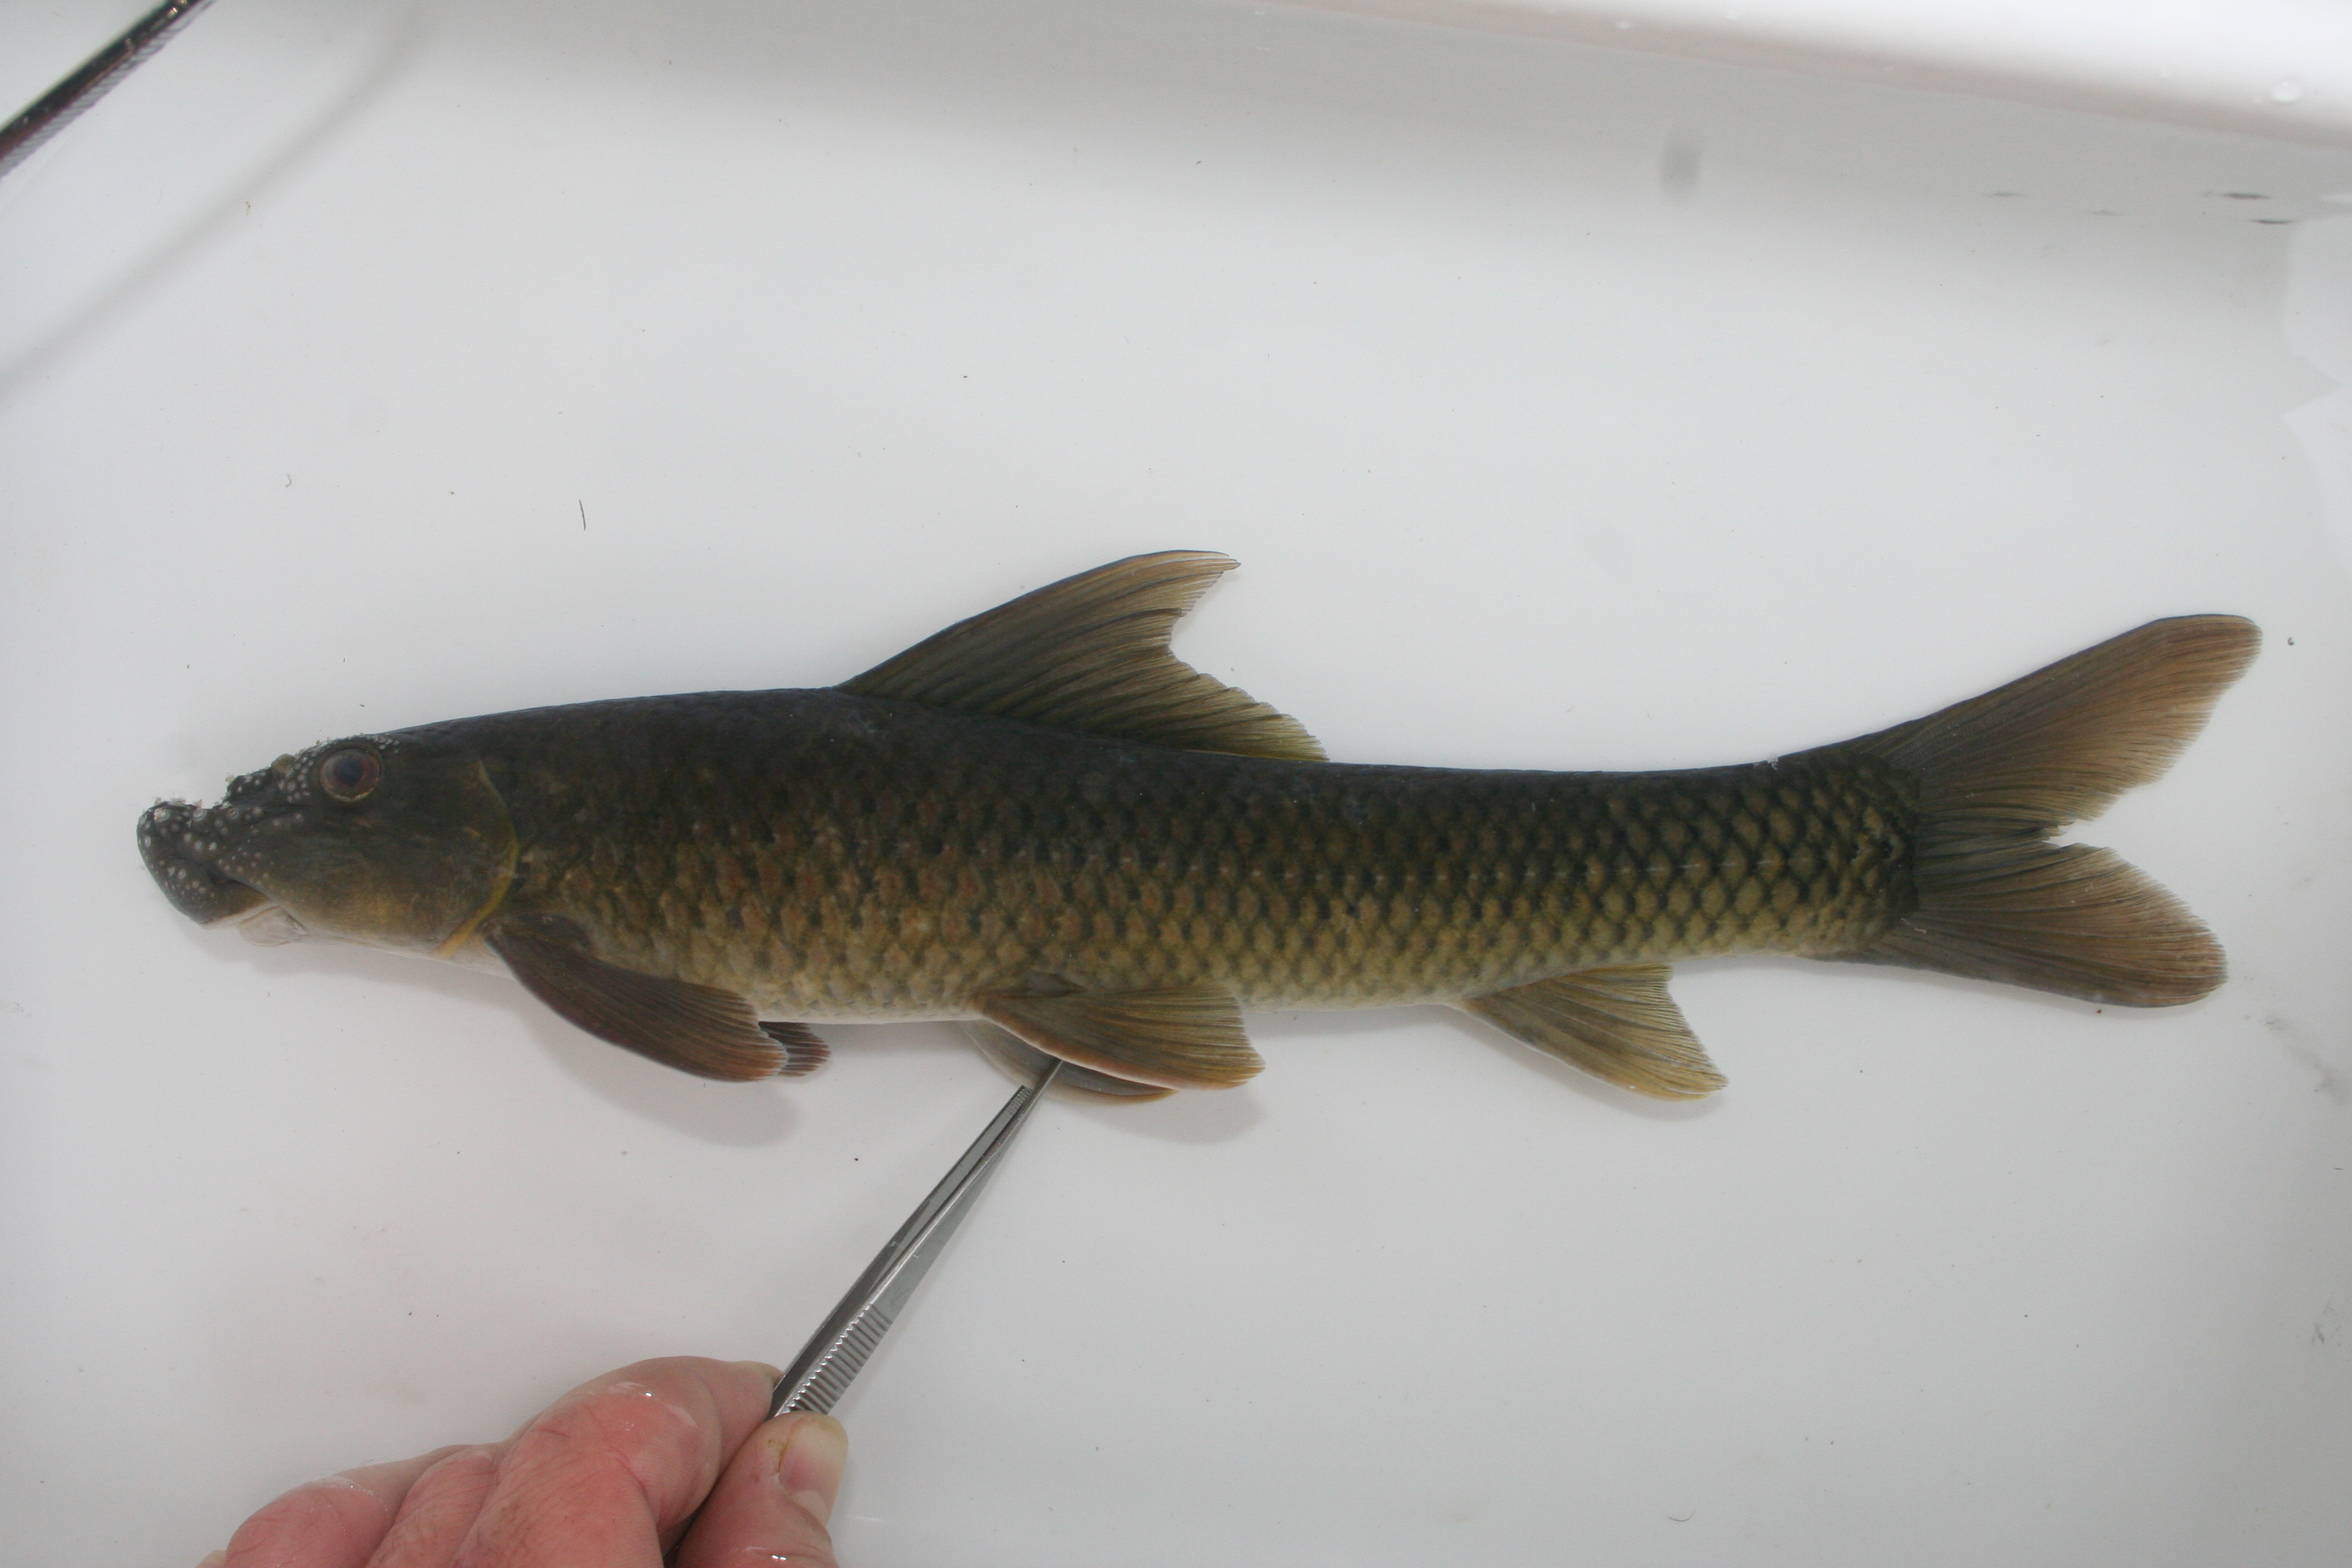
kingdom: Animalia
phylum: Chordata
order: Cypriniformes
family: Cyprinidae
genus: Barbus
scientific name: Barbus
